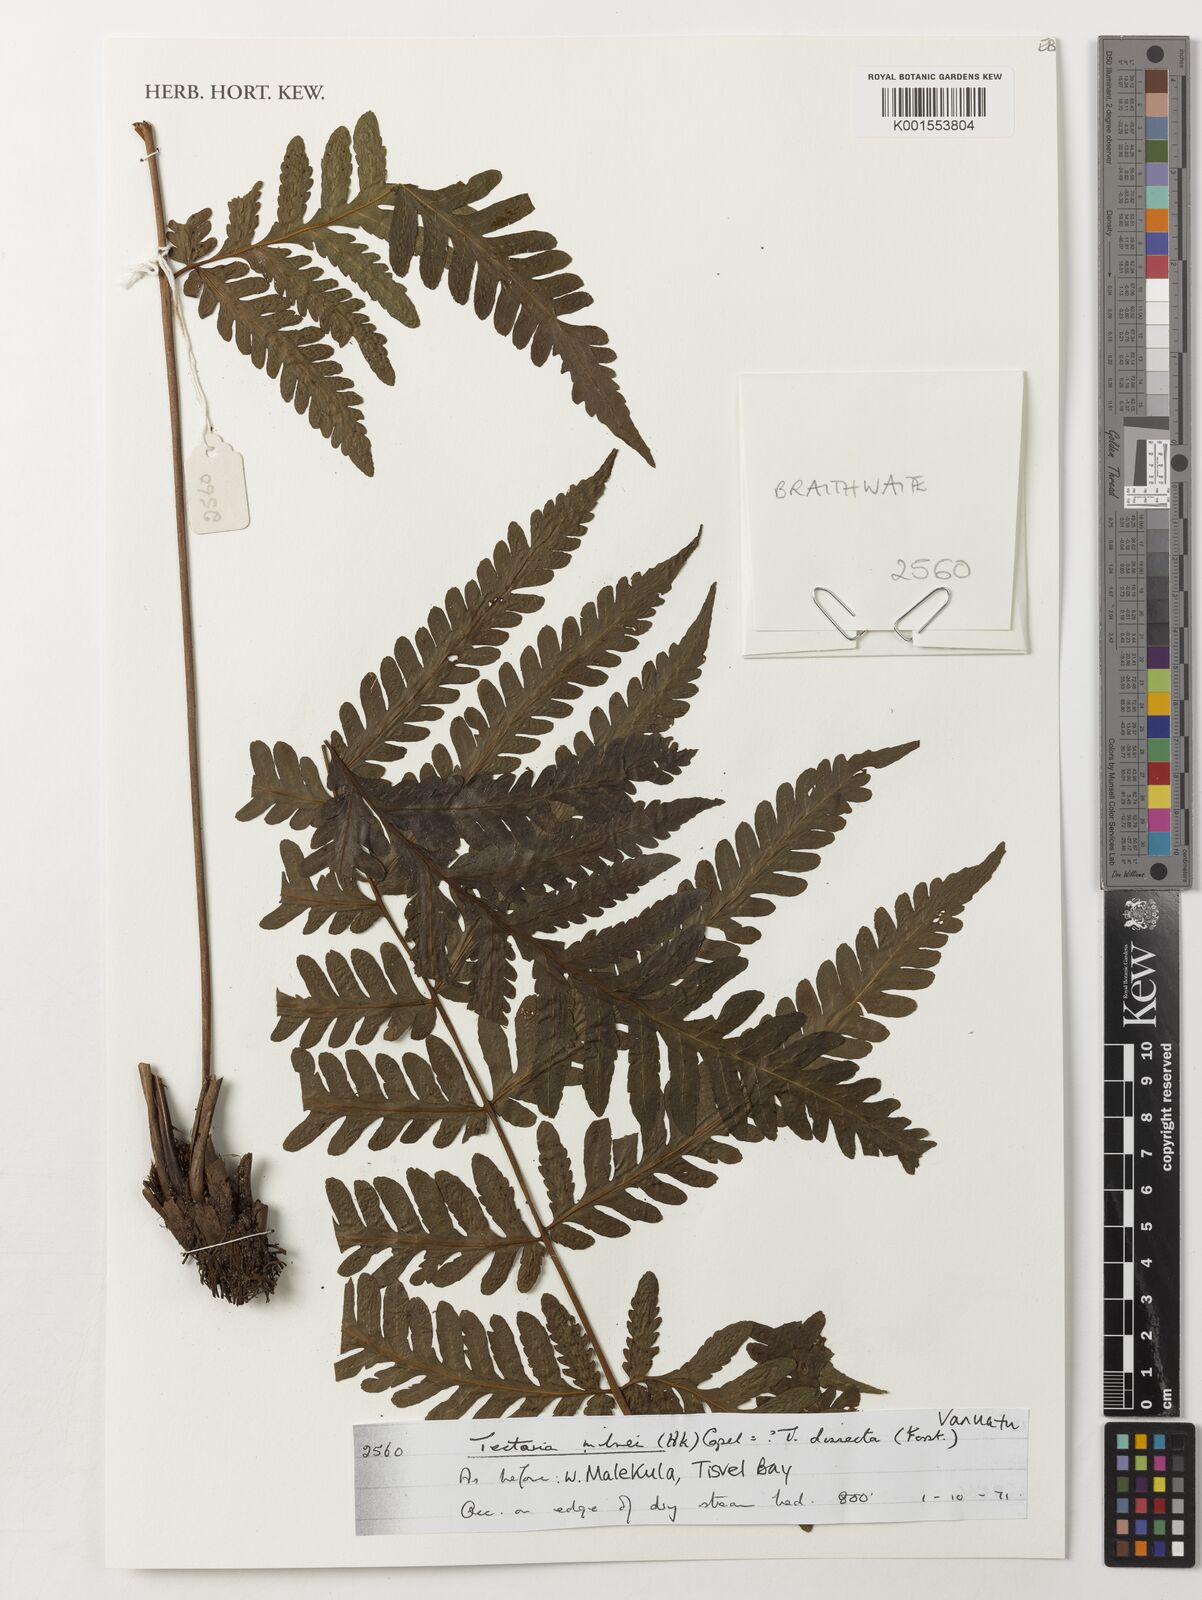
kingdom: Plantae
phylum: Tracheophyta
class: Polypodiopsida
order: Polypodiales
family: Tectariaceae
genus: Tectaria
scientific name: Tectaria hookeri
